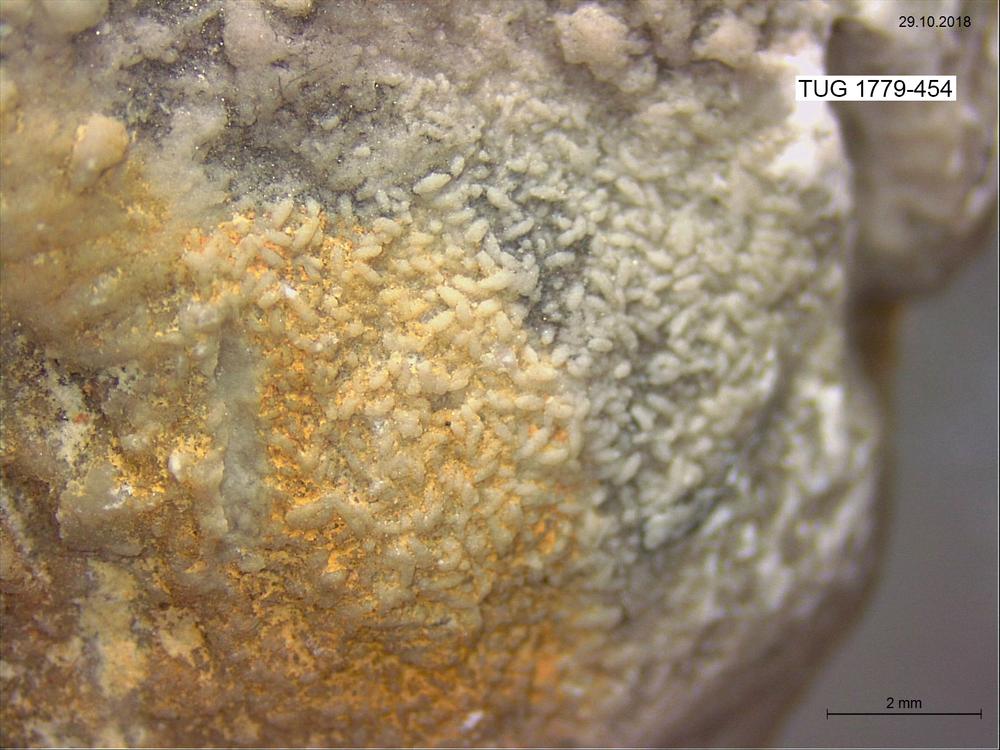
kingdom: Animalia
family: Coprulidae
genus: Coprulus
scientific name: Coprulus
